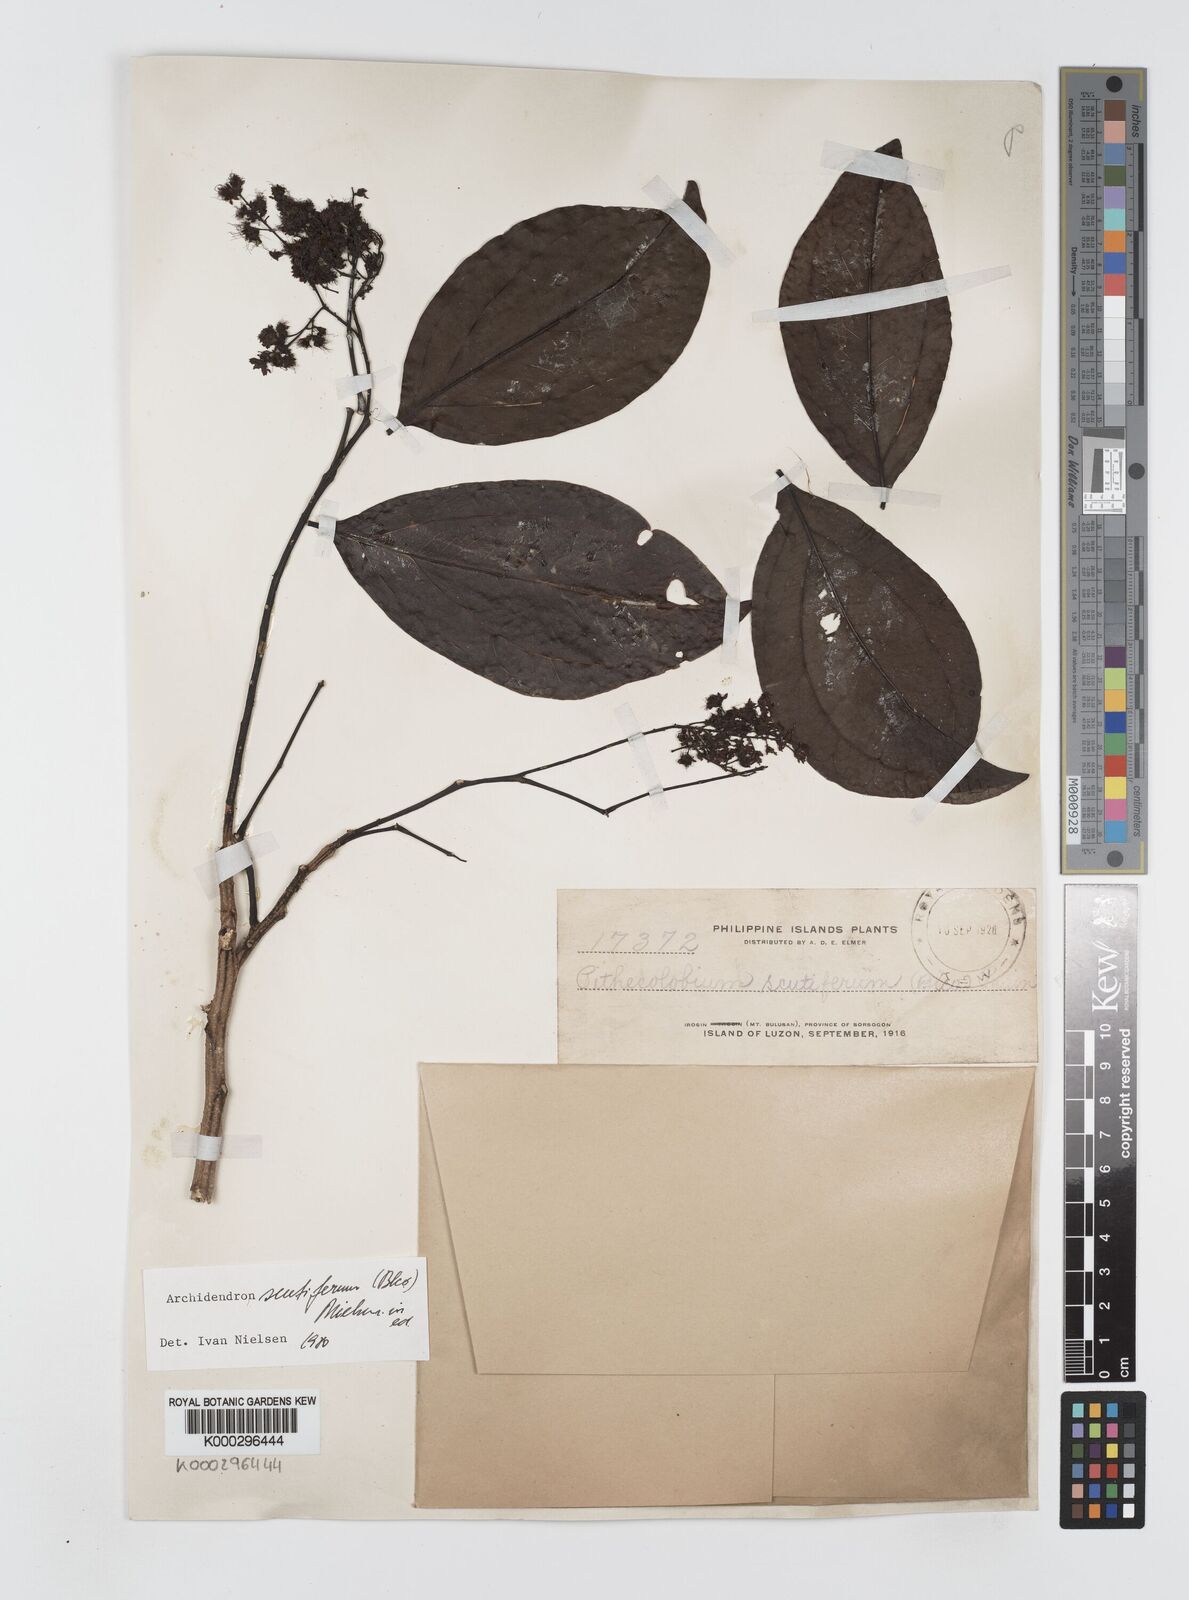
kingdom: Plantae
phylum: Tracheophyta
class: Magnoliopsida
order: Fabales
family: Fabaceae
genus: Archidendron
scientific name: Archidendron scutiferum
